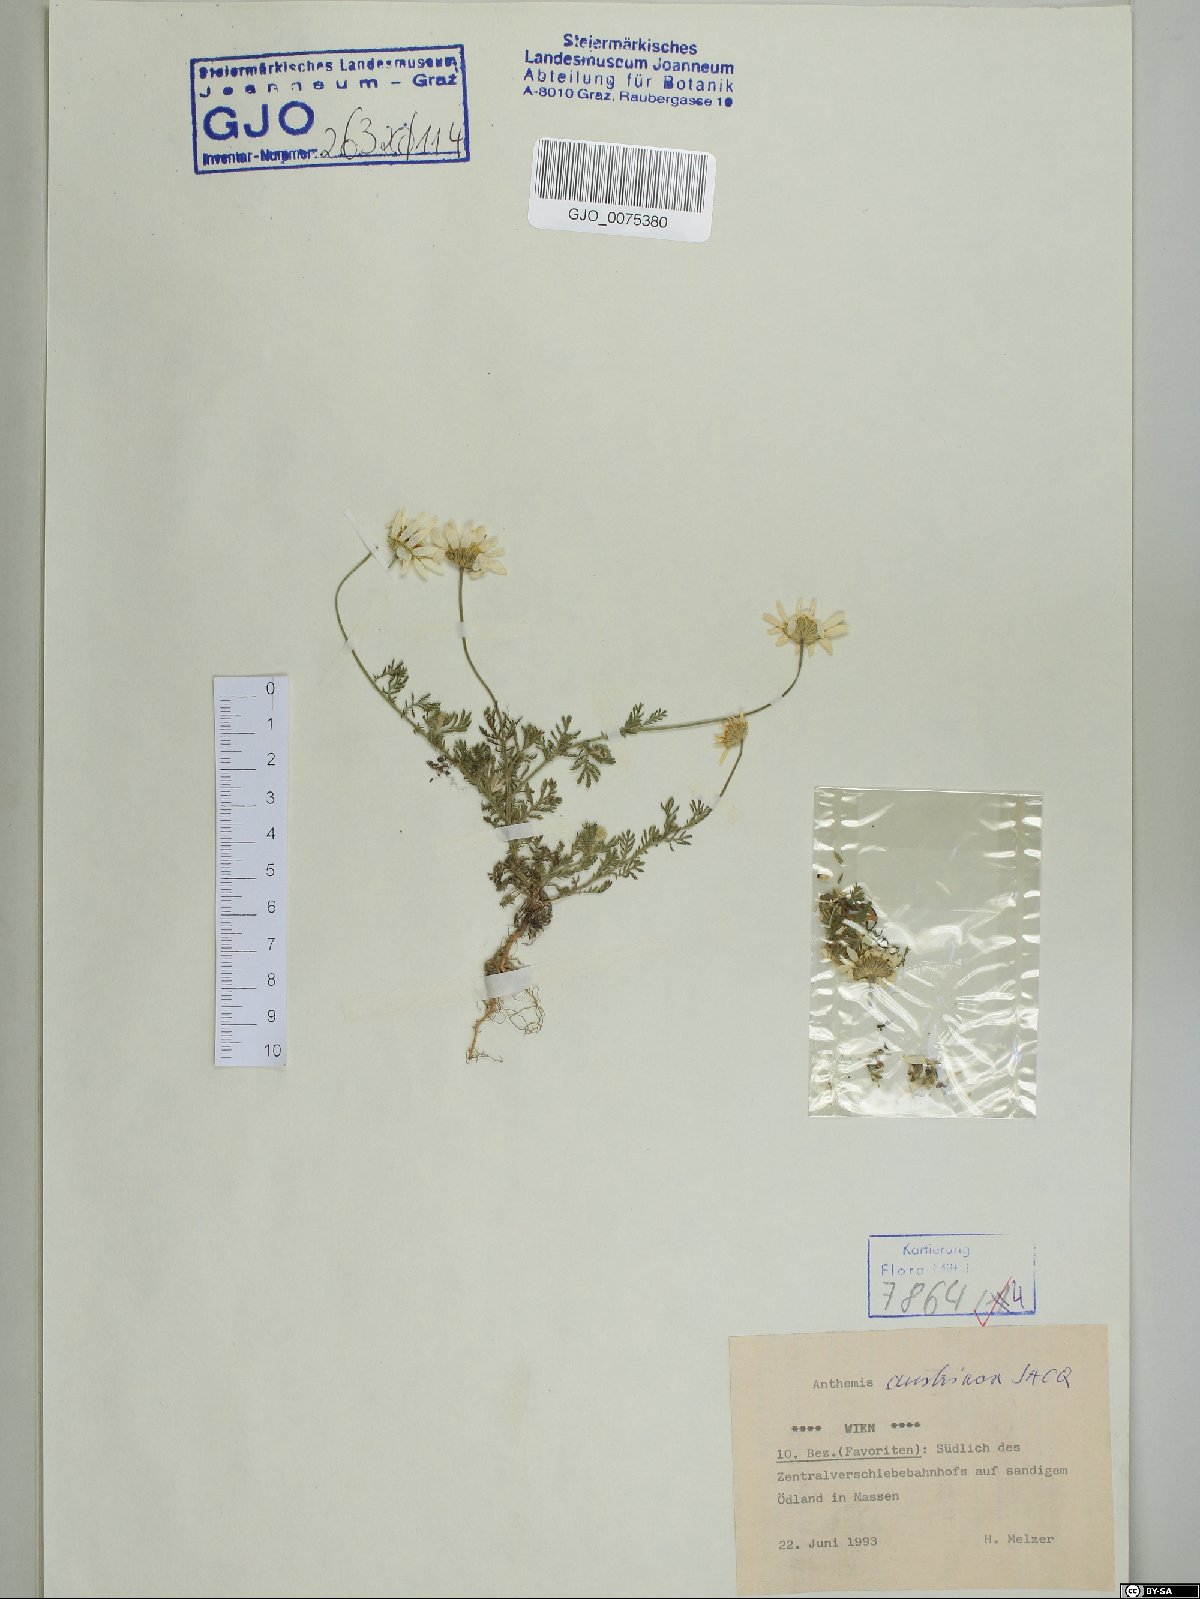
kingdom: Plantae
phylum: Tracheophyta
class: Magnoliopsida
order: Asterales
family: Asteraceae
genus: Cota
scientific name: Cota austriaca
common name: Austrian chamomile
